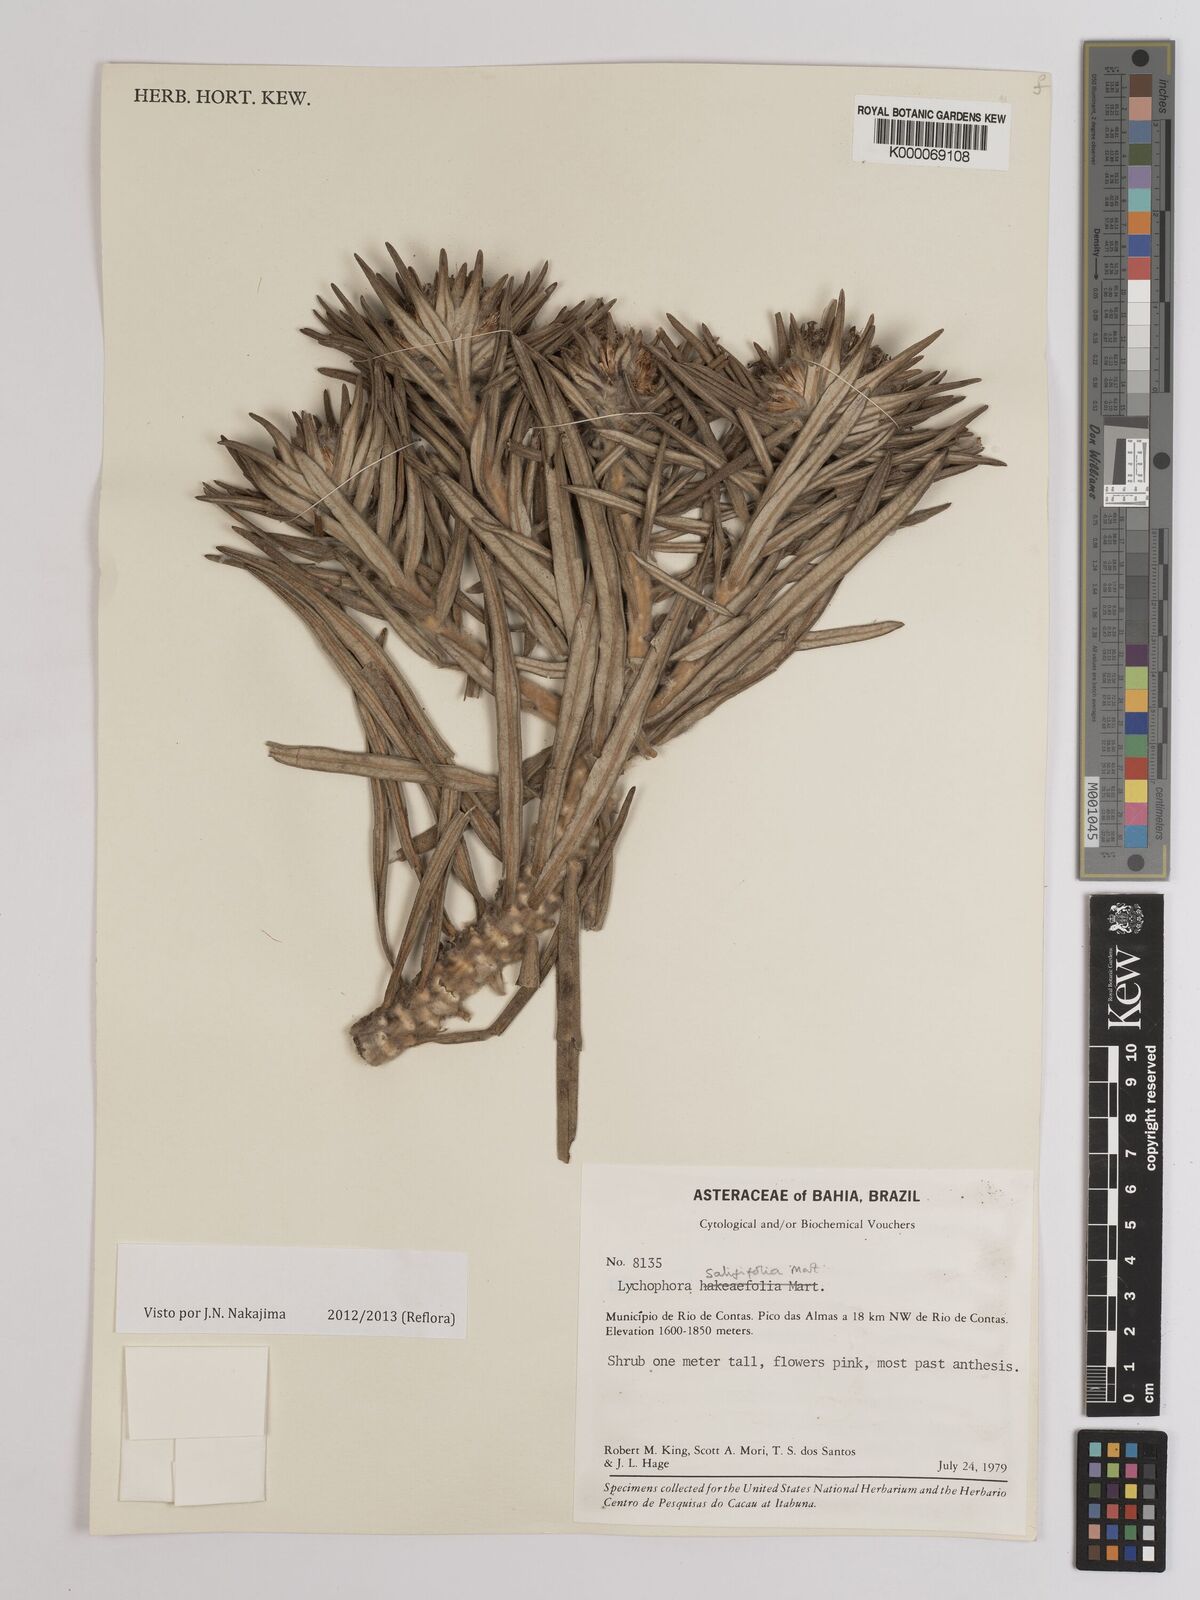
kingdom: Plantae
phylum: Tracheophyta
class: Magnoliopsida
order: Asterales
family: Asteraceae
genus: Lychnophora
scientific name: Lychnophora salicifolia
